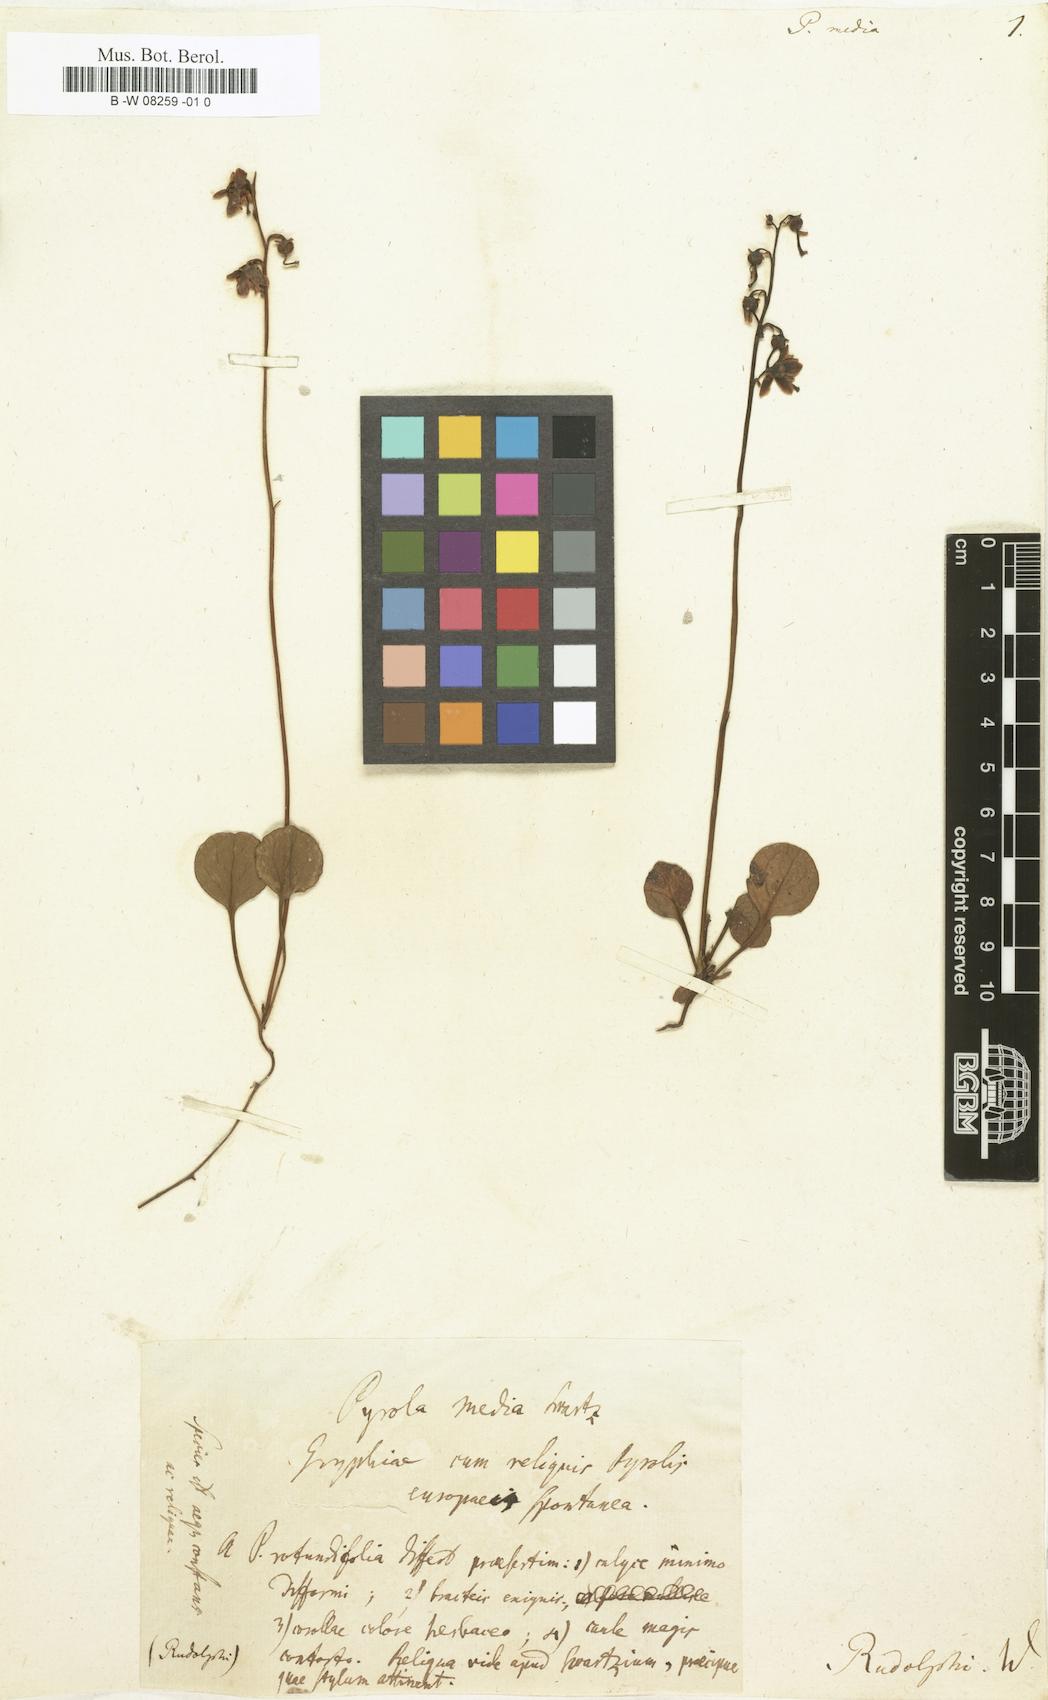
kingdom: Plantae
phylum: Tracheophyta
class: Magnoliopsida
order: Ericales
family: Ericaceae
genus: Pyrola
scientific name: Pyrola media
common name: Intermediate wintergreen
